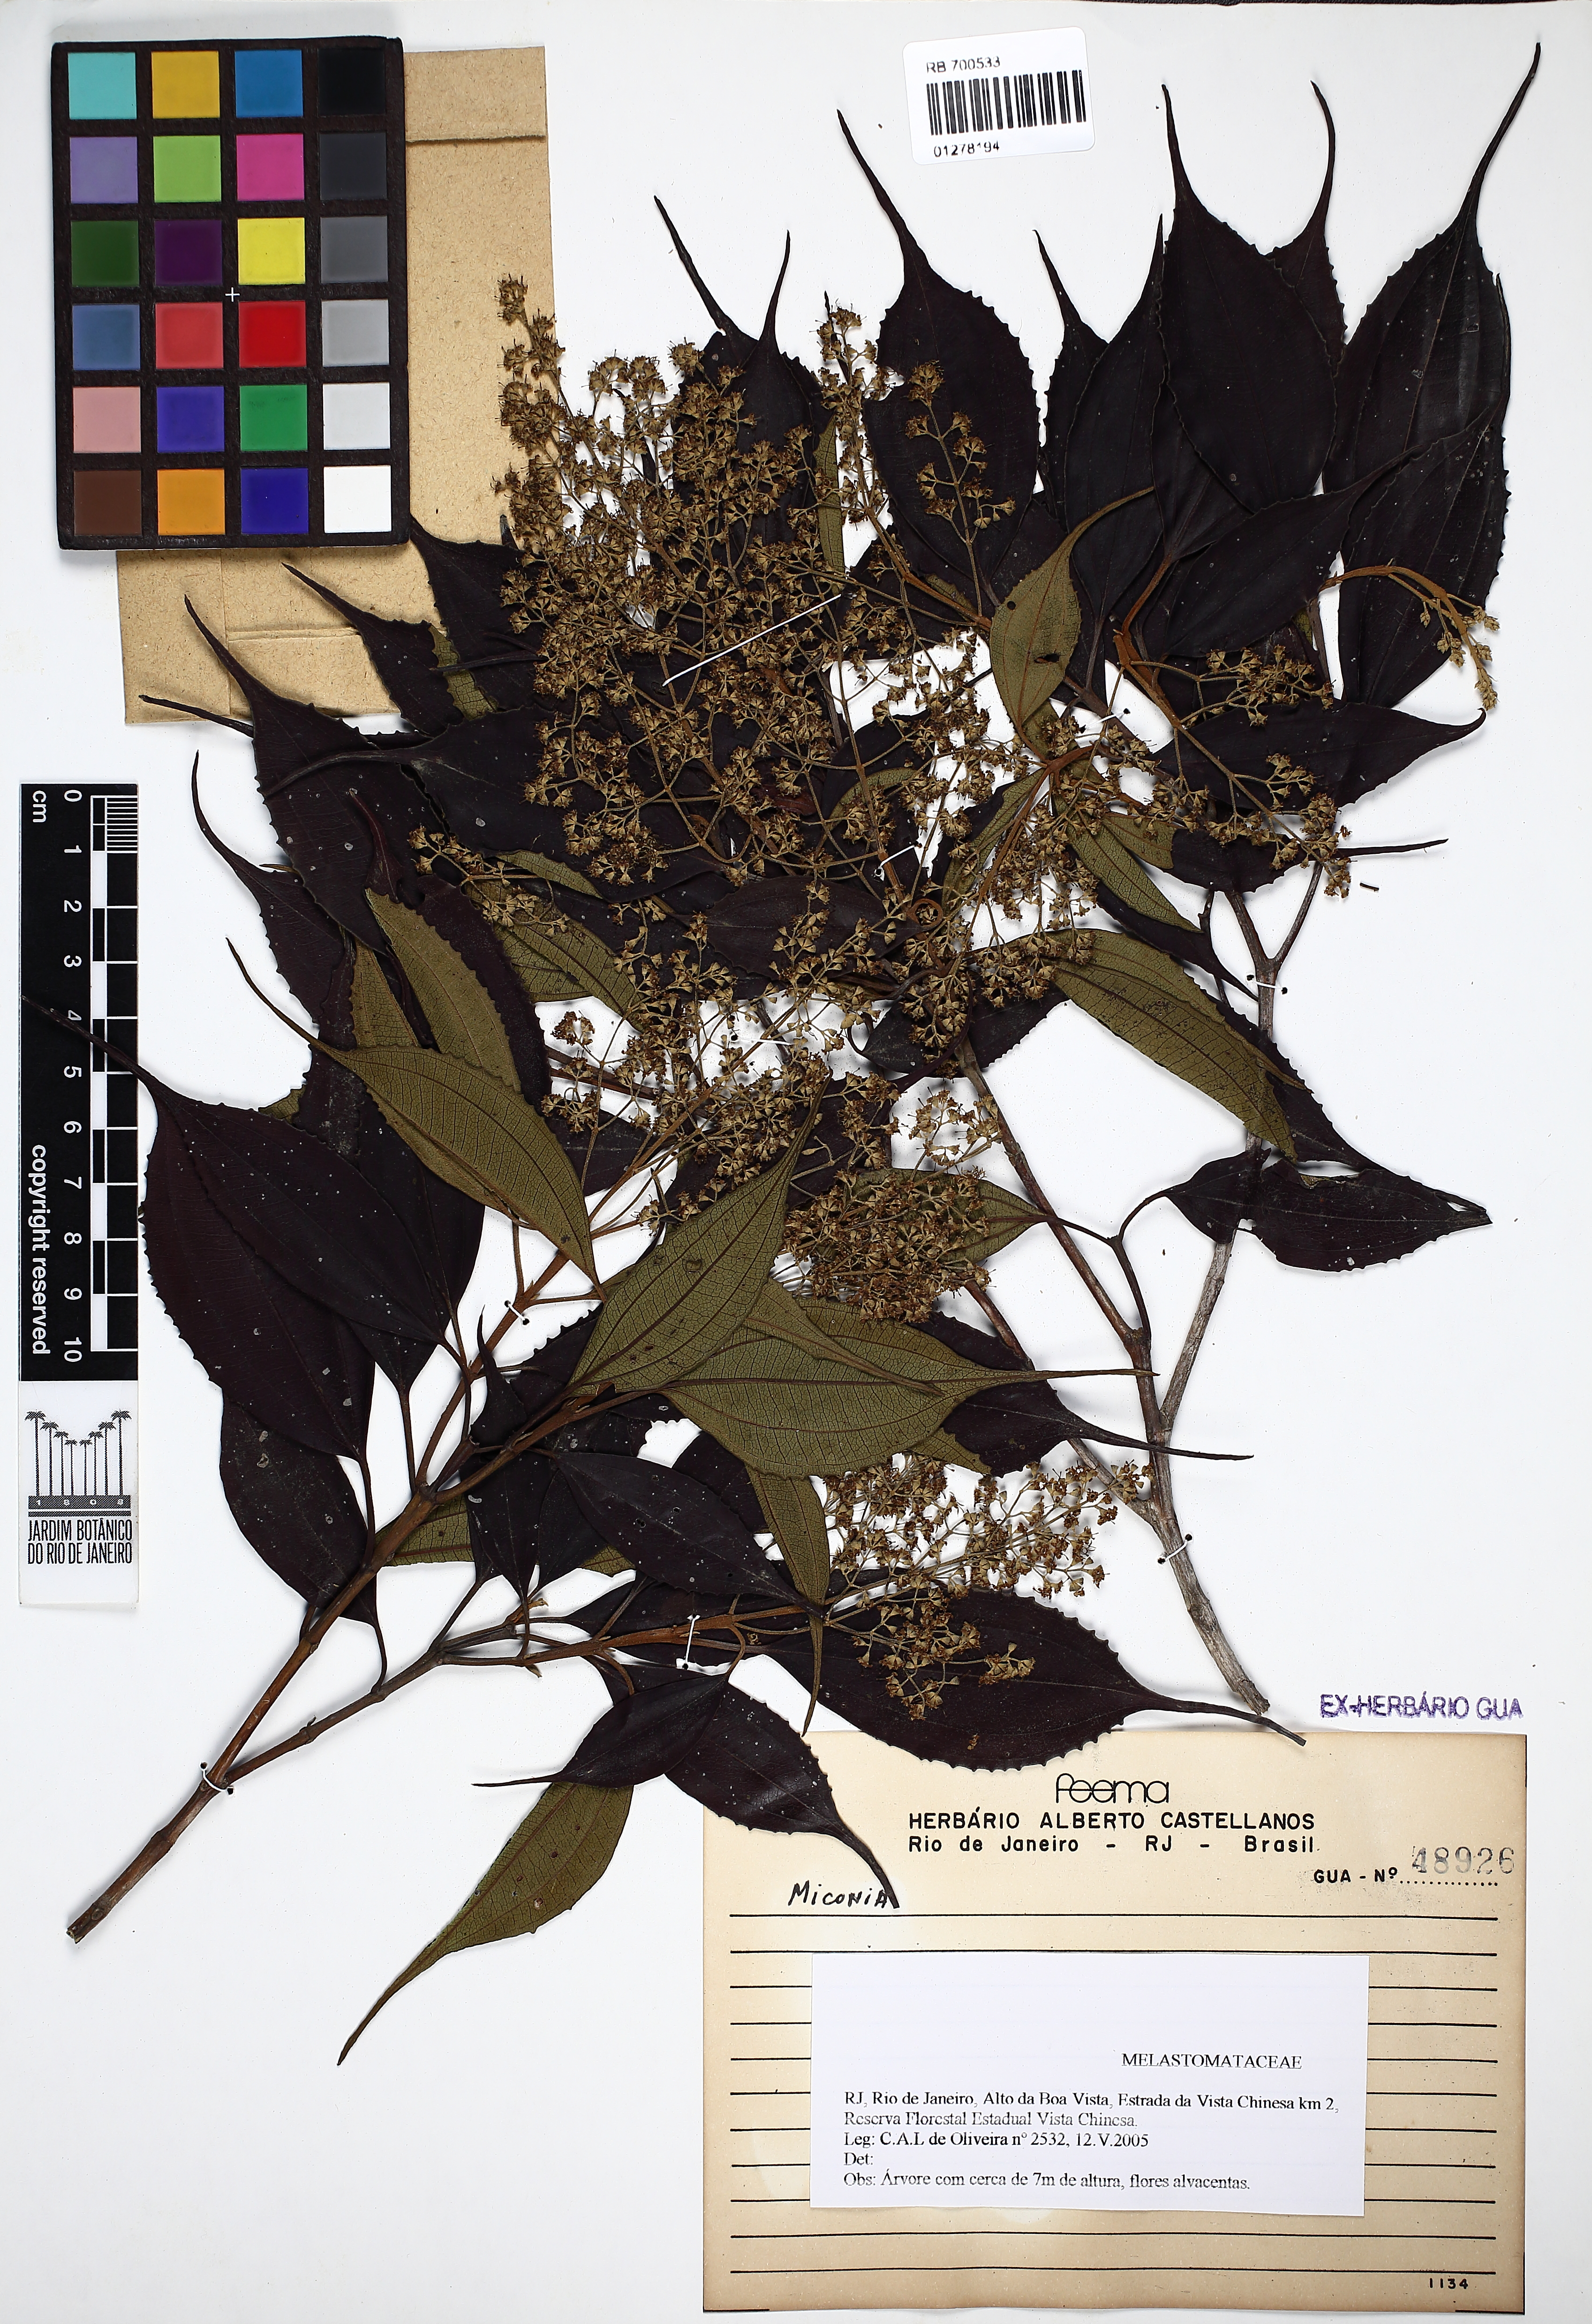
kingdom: Plantae
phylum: Tracheophyta
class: Magnoliopsida
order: Myrtales
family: Melastomataceae
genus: Miconia
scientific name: Miconia
